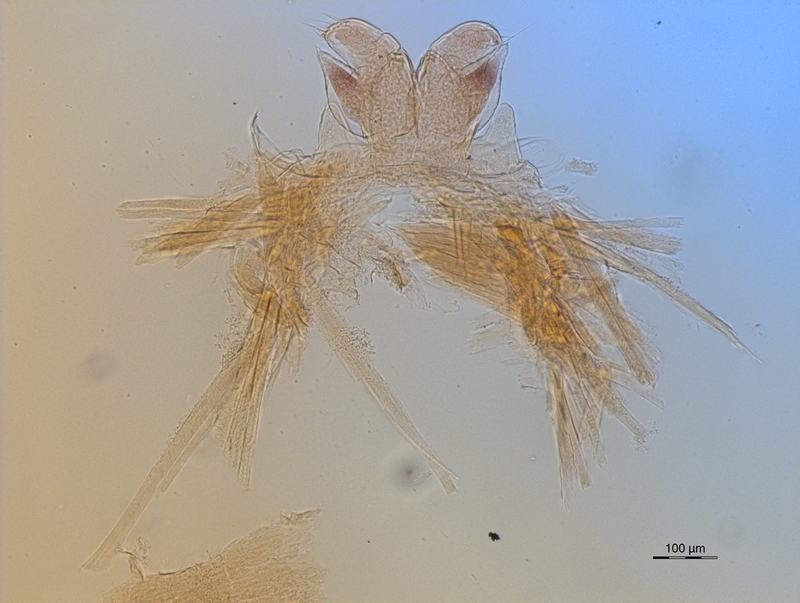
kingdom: Animalia
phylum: Arthropoda
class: Diplopoda
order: Chordeumatida
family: Craspedosomatidae
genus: Ochogona
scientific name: Ochogona caroli
